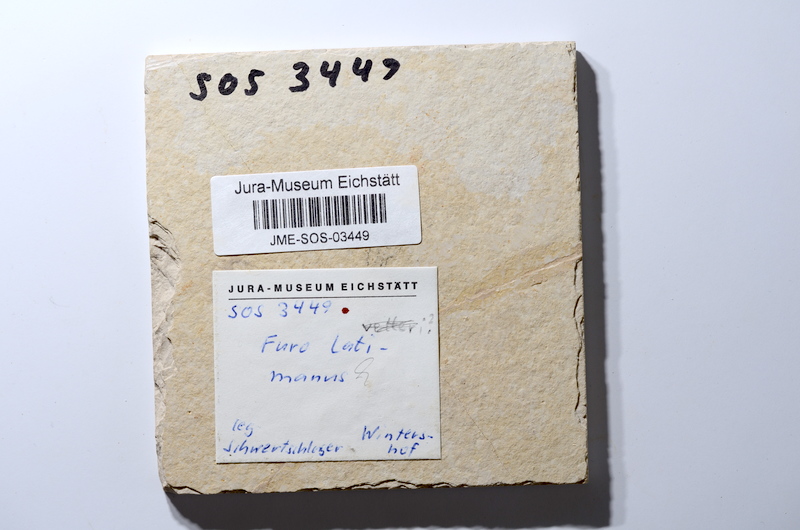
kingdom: Animalia
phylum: Chordata
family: Ophiopsiellidae
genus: Furo
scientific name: Furo latimanus
